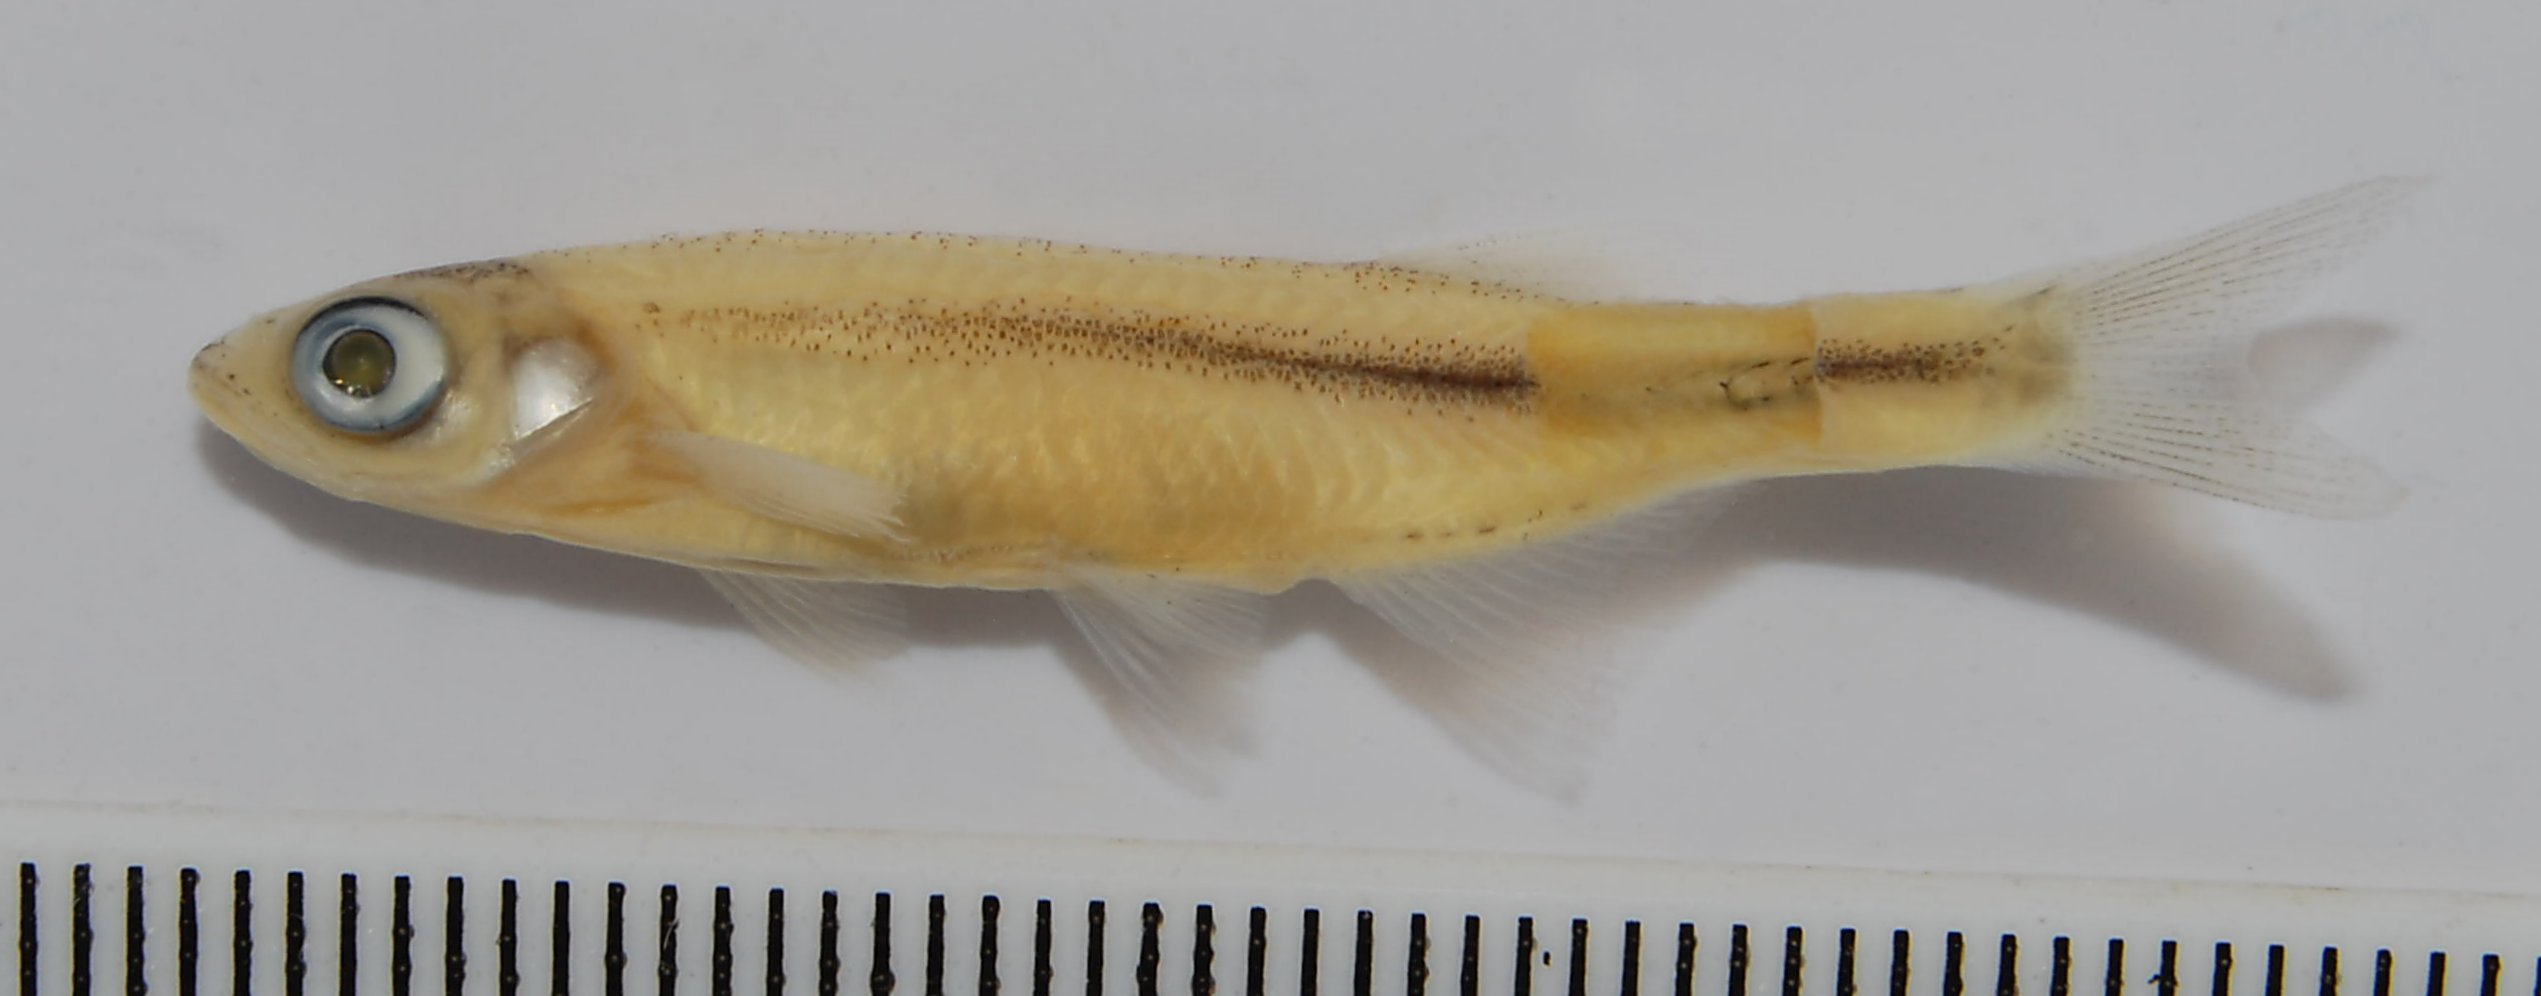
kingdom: Animalia
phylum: Chordata
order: Cypriniformes
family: Cyprinidae
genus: Engraulicypris
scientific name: Engraulicypris howesi
